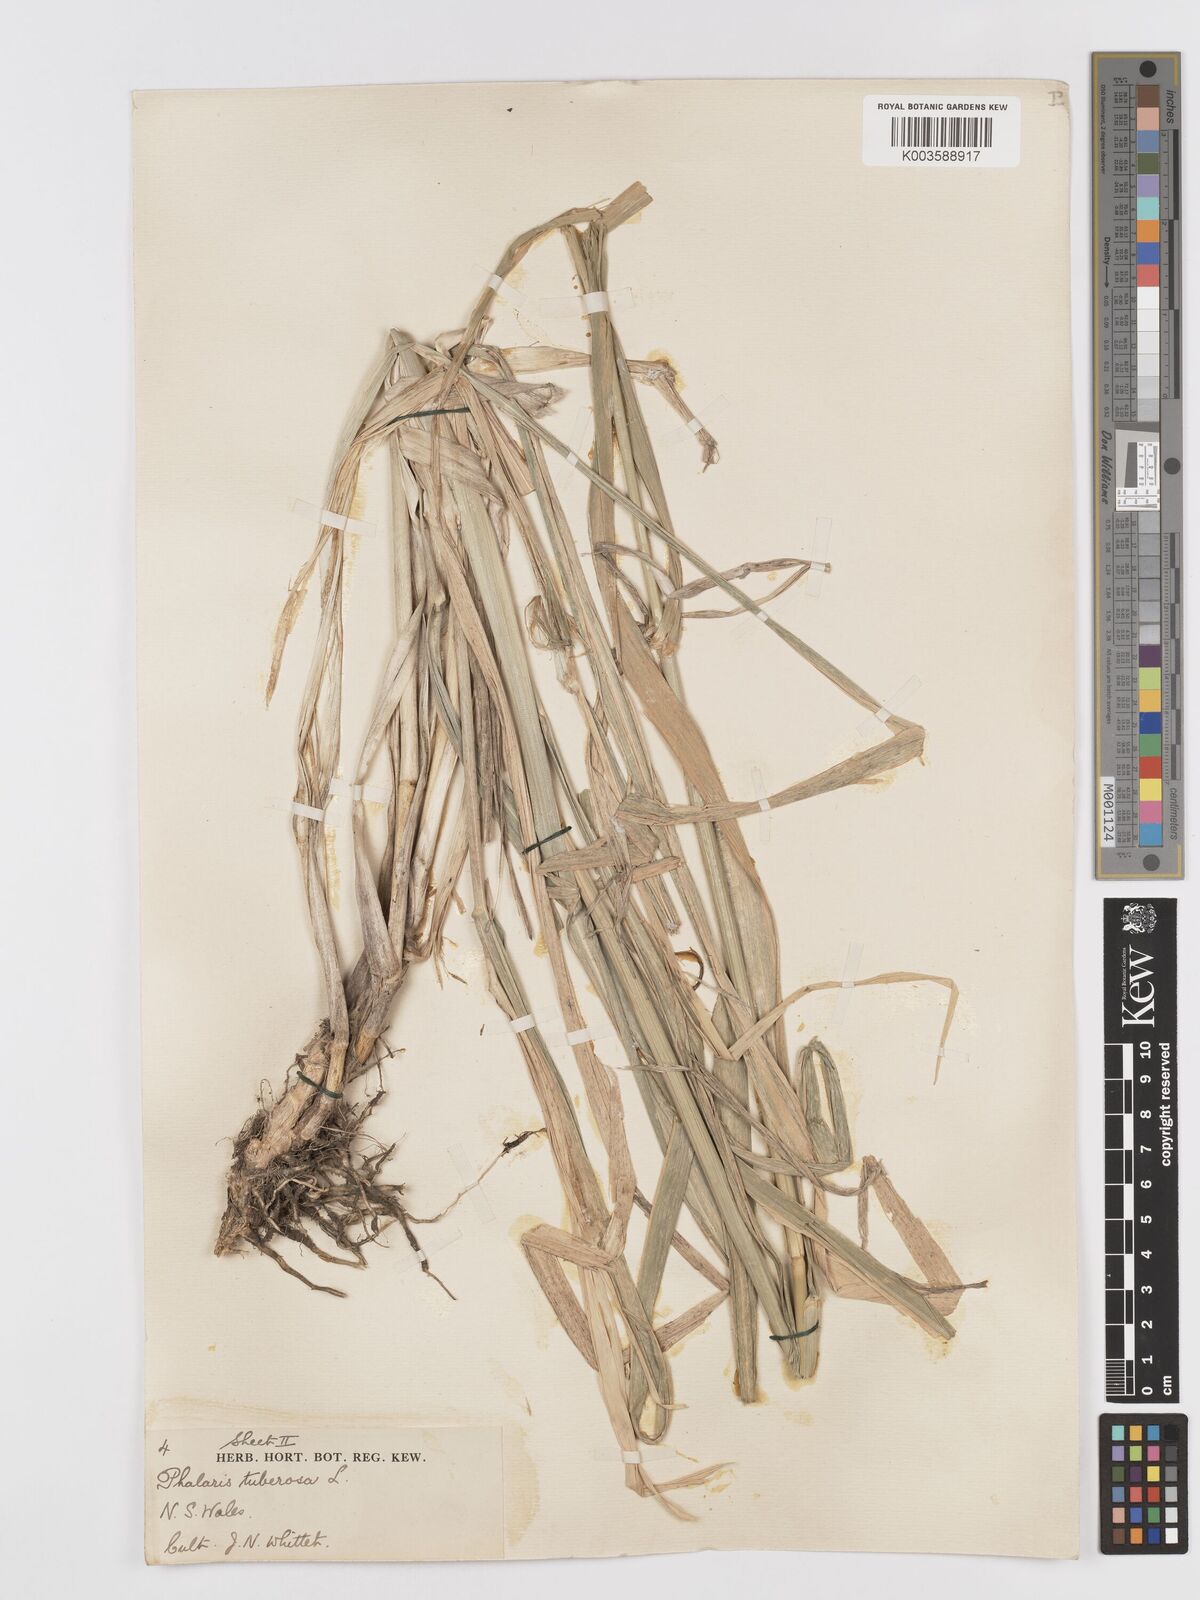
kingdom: Plantae
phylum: Tracheophyta
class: Liliopsida
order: Poales
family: Poaceae
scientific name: Poaceae
